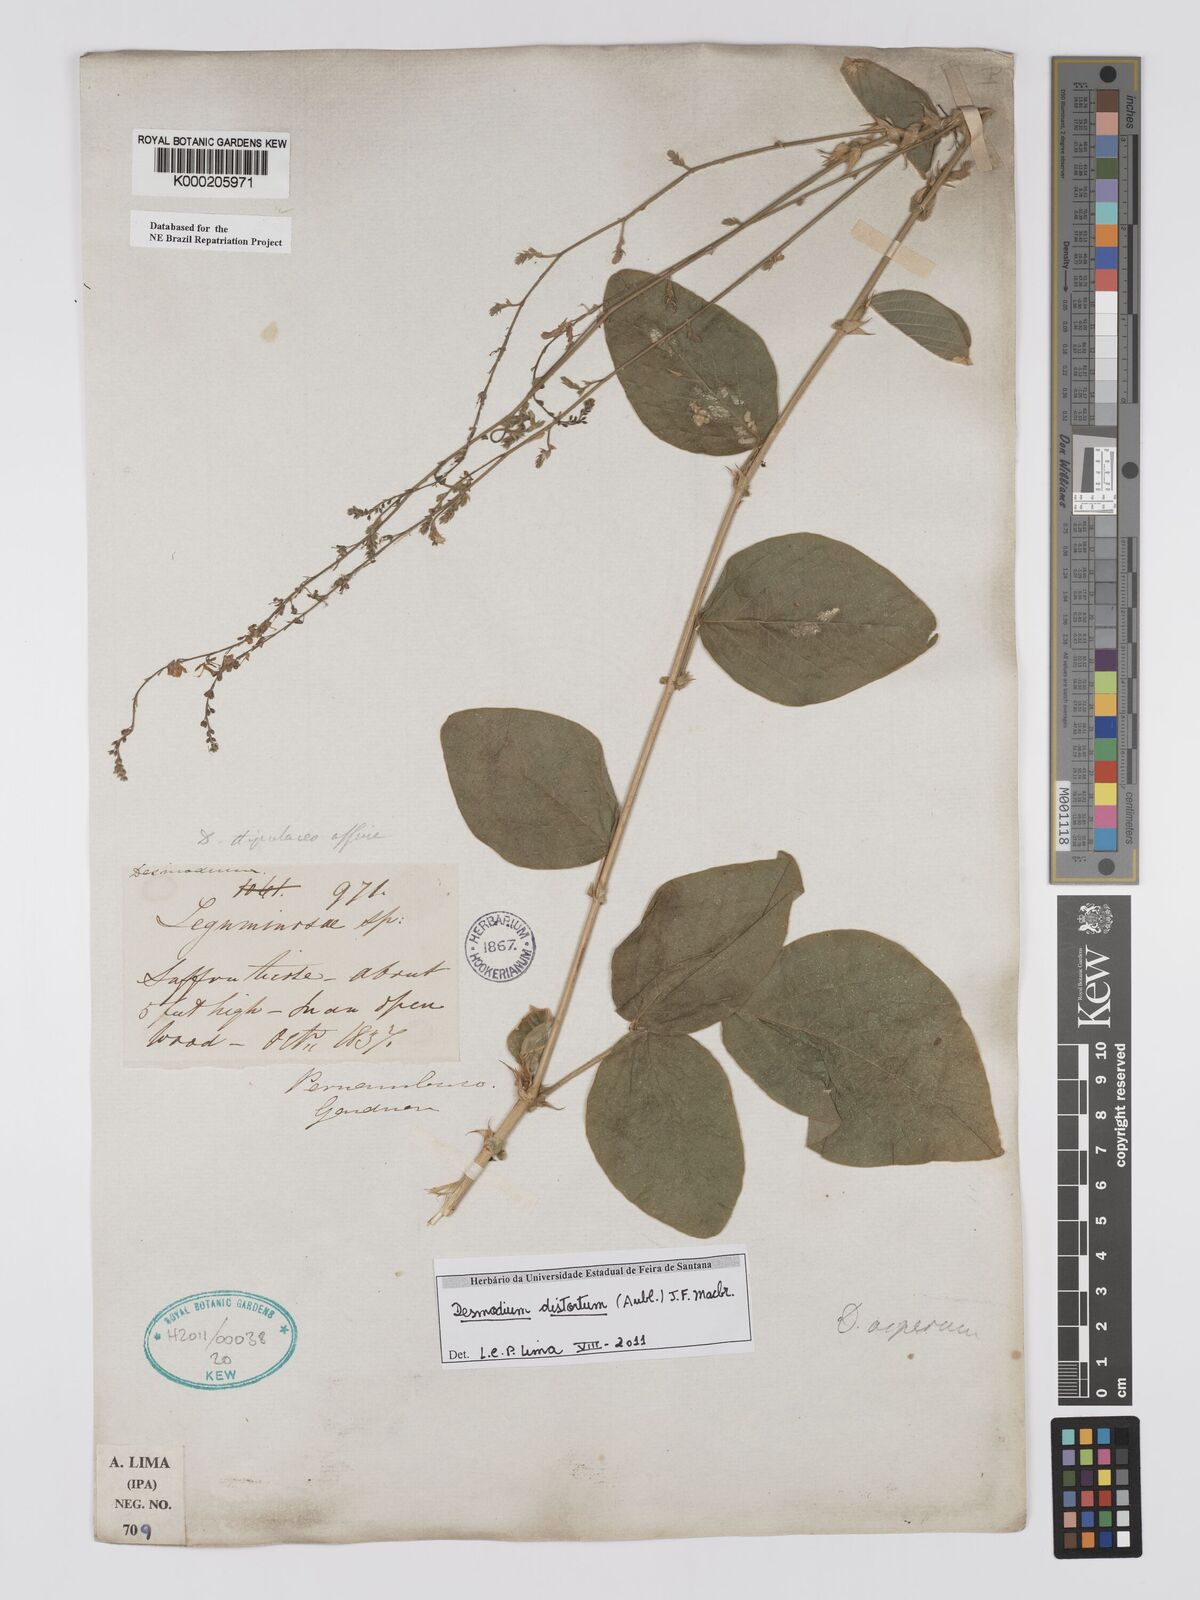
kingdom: Plantae
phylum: Tracheophyta
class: Magnoliopsida
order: Fabales
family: Fabaceae
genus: Desmodium
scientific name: Desmodium distortum
